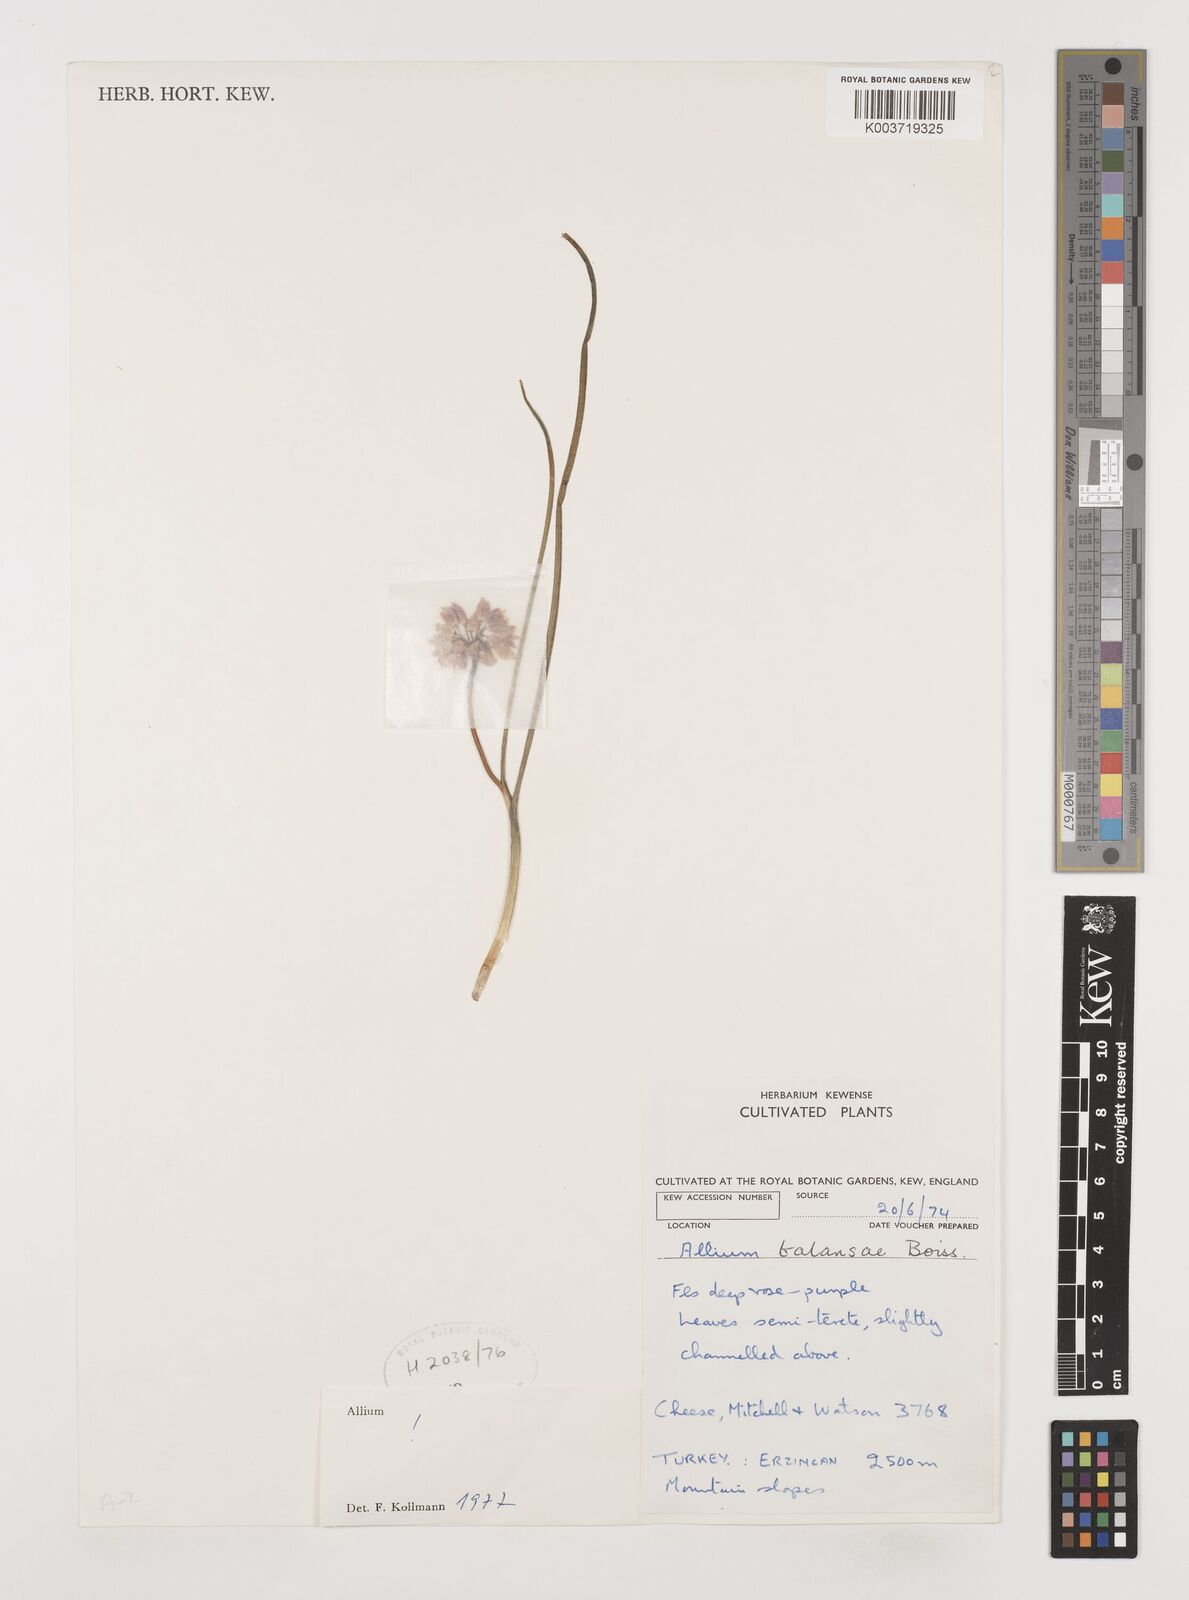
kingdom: Plantae
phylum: Tracheophyta
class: Liliopsida
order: Asparagales
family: Amaryllidaceae
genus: Allium
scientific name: Allium balansae
